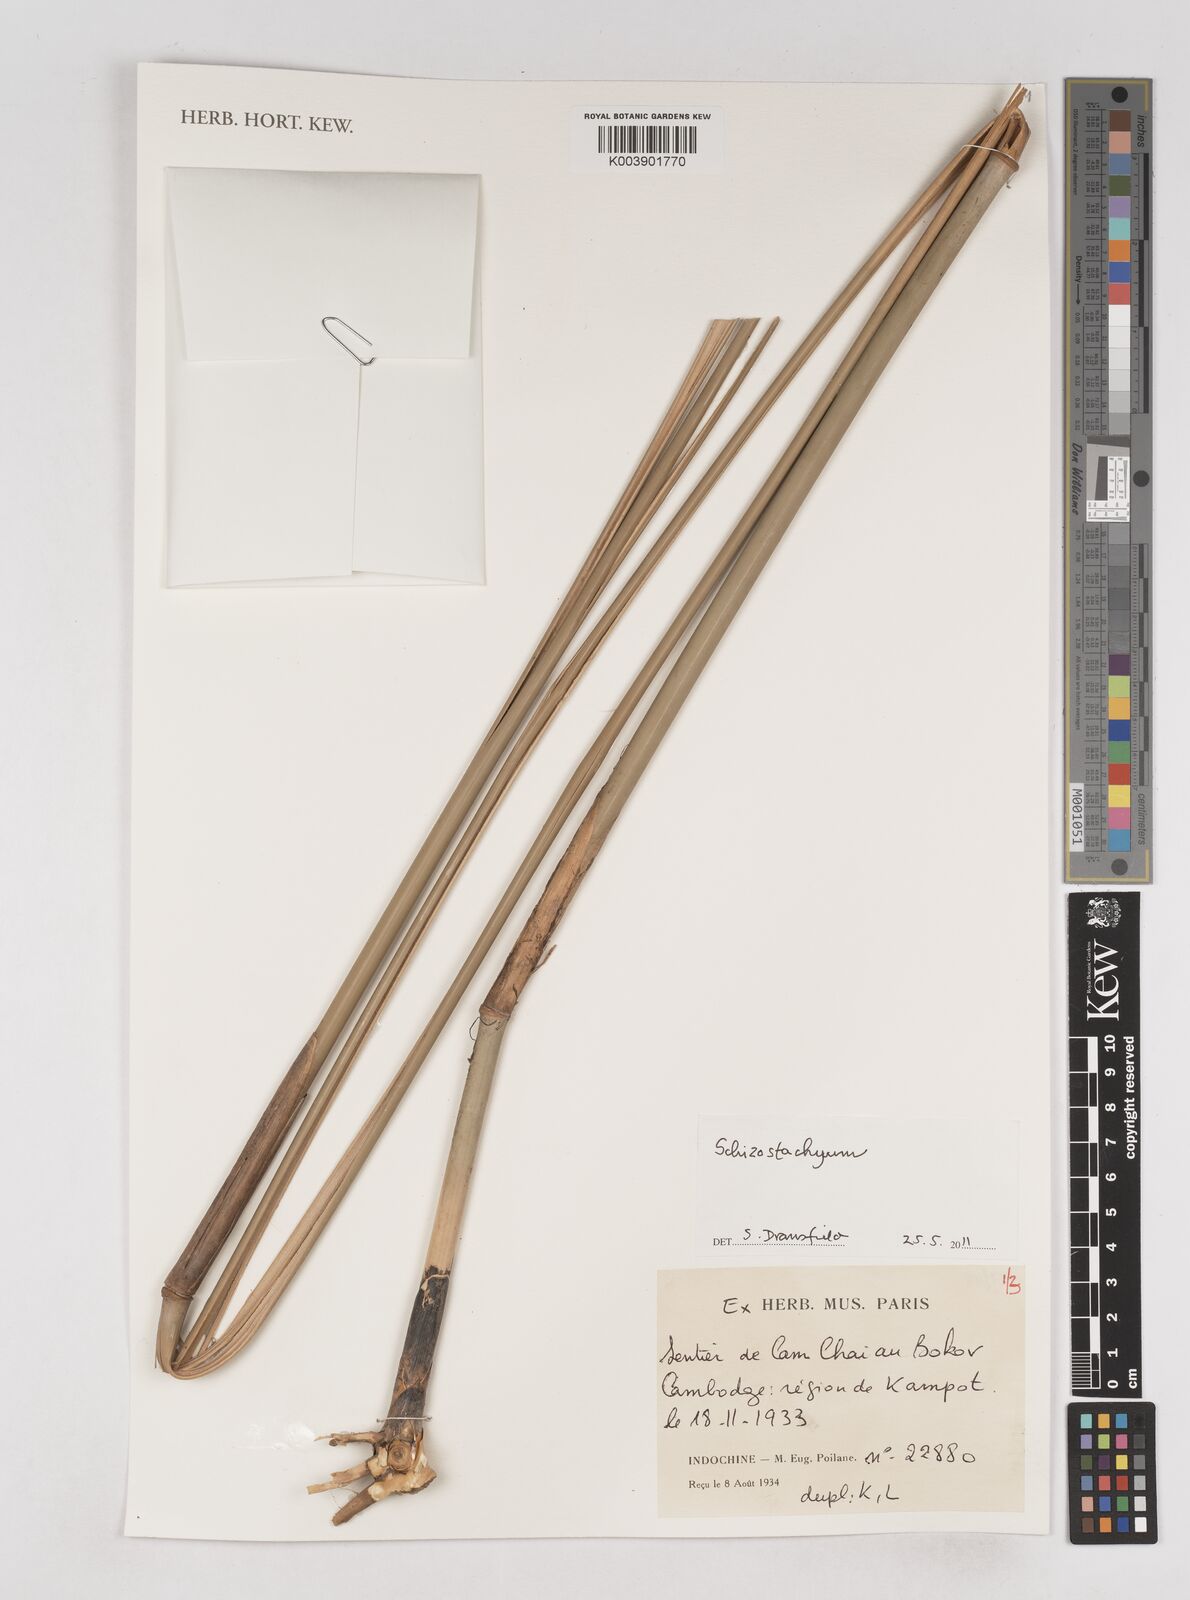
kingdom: Plantae
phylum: Tracheophyta
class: Liliopsida
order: Poales
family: Poaceae
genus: Schizostachyum
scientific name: Schizostachyum
